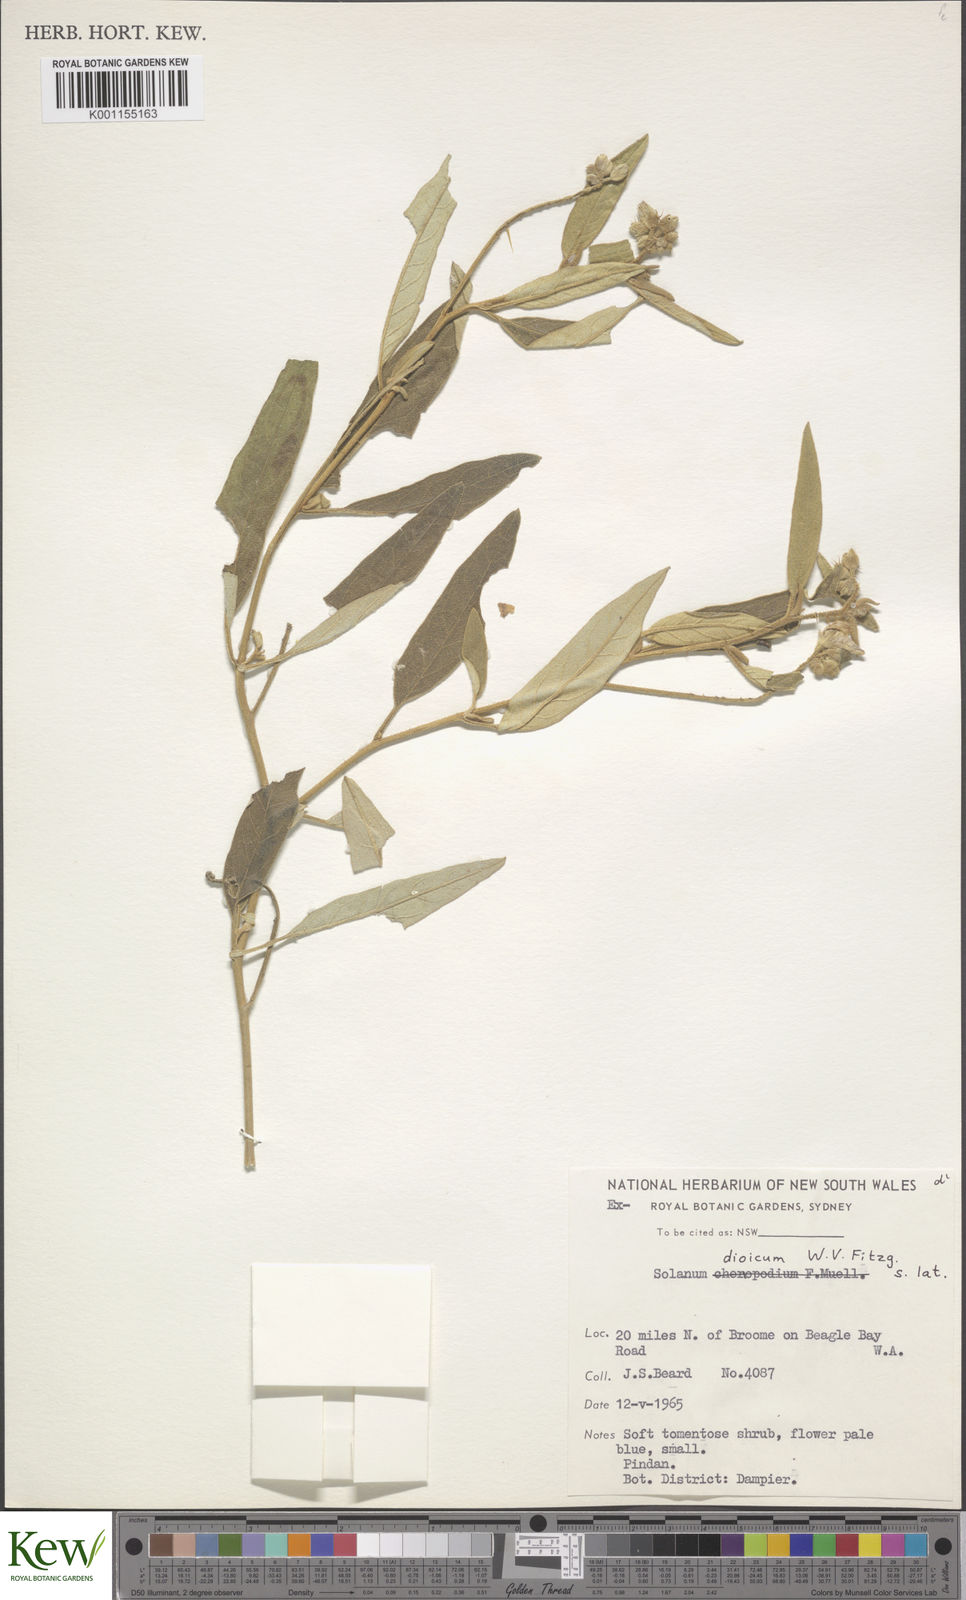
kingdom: Plantae
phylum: Tracheophyta
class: Magnoliopsida
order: Solanales
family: Solanaceae
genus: Solanum
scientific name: Solanum dioicum
